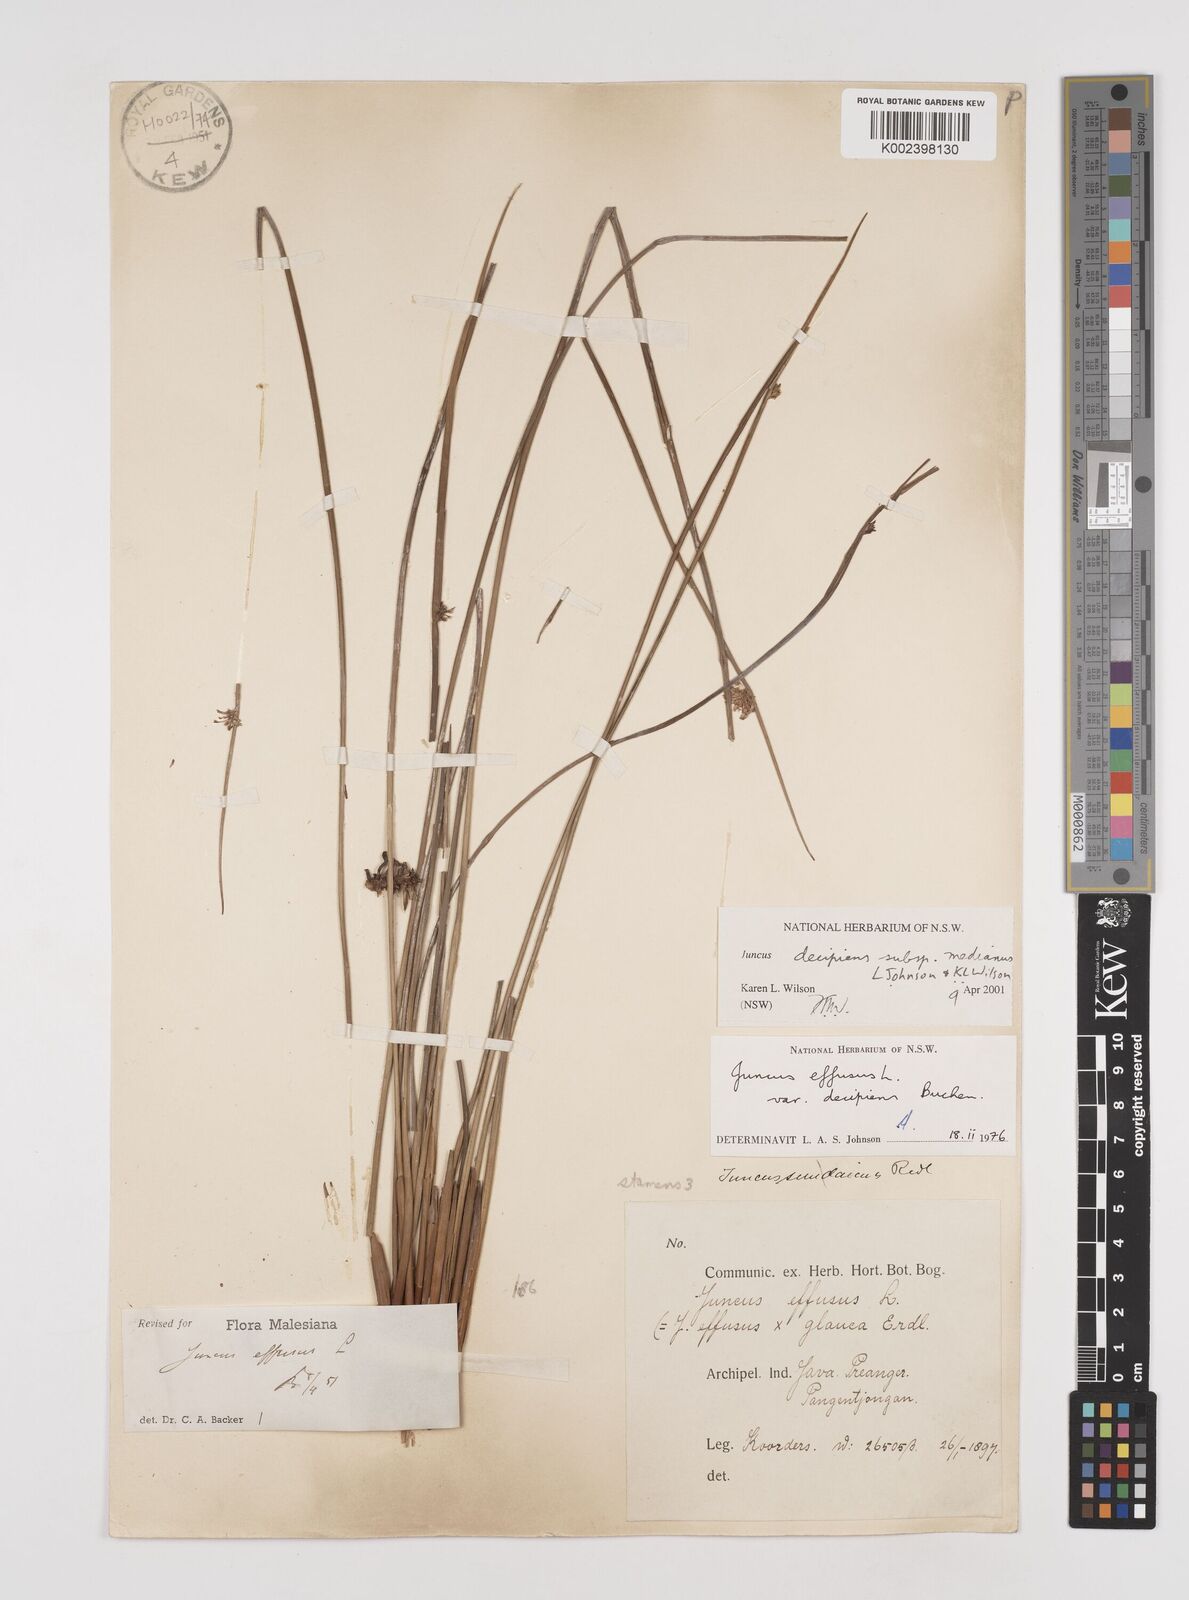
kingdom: Plantae
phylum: Tracheophyta
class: Liliopsida
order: Poales
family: Juncaceae
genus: Juncus
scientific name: Juncus decipiens
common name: Lamp rush
